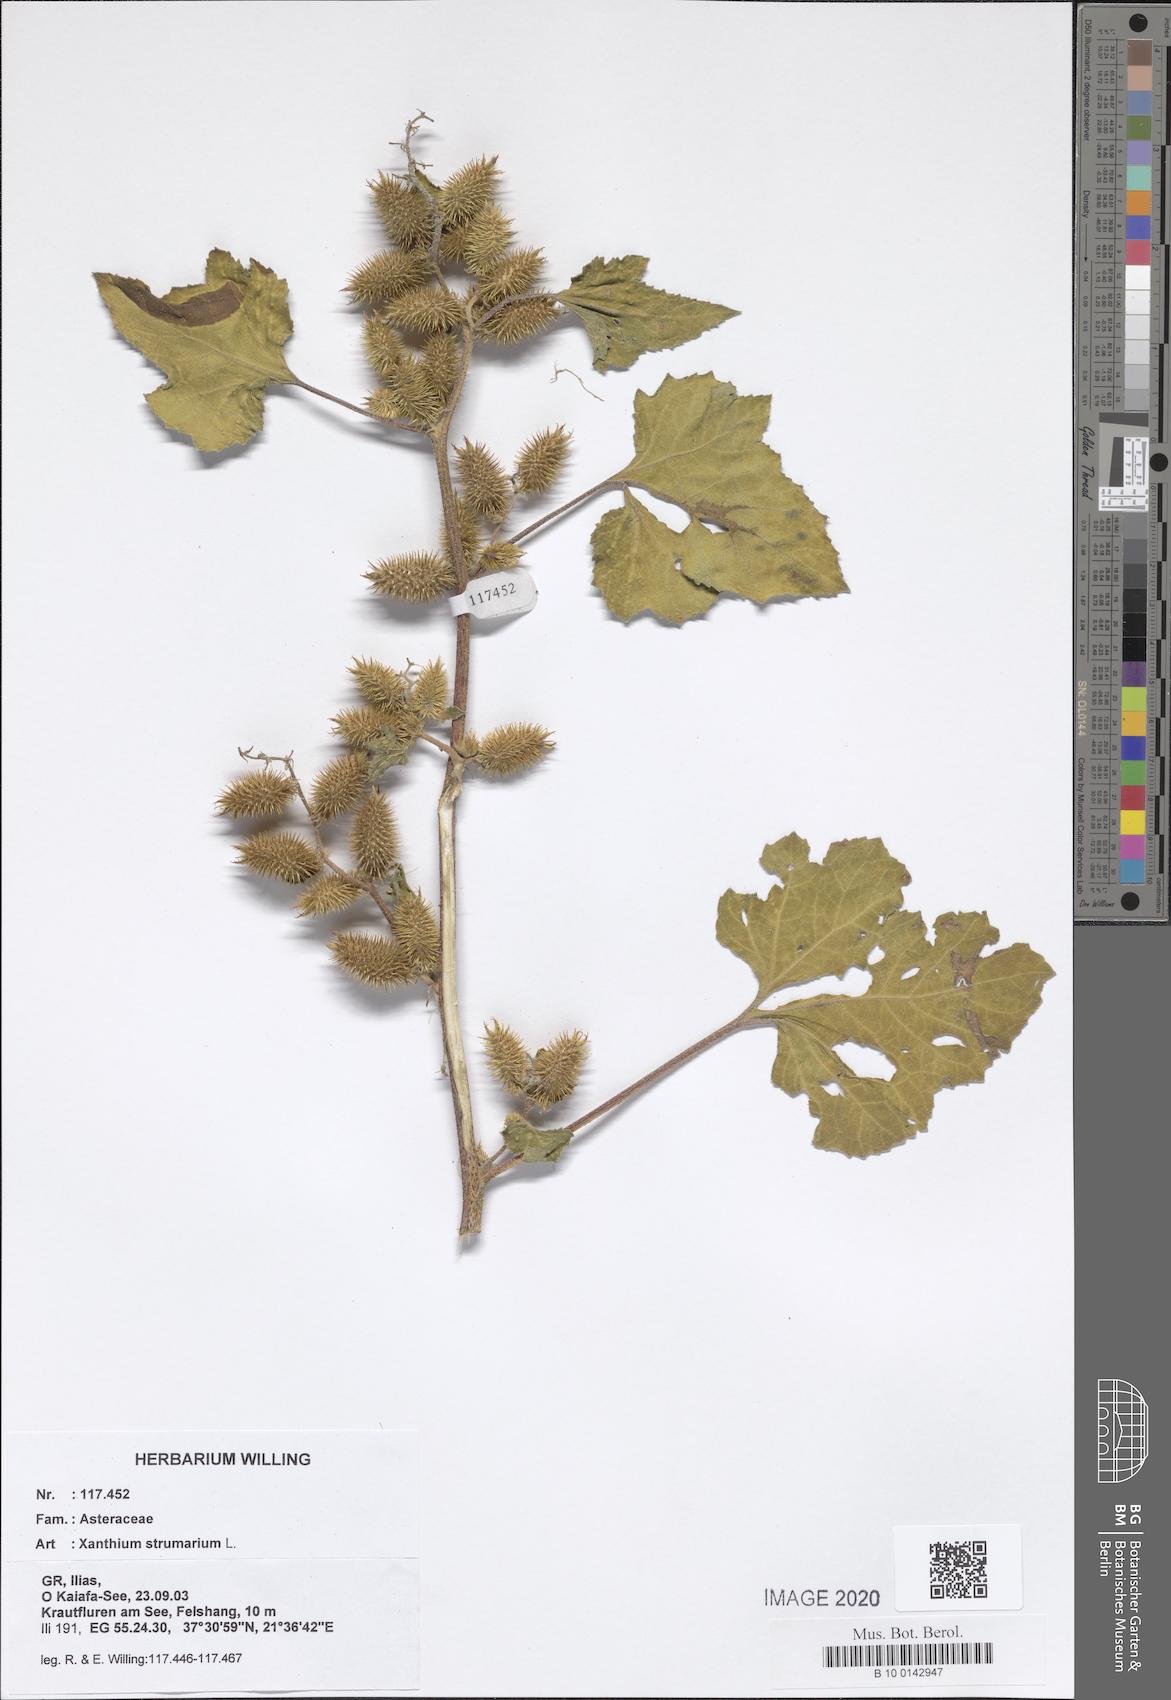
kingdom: Plantae
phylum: Tracheophyta
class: Magnoliopsida
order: Asterales
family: Asteraceae
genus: Xanthium
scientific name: Xanthium strumarium
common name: Rough cocklebur
